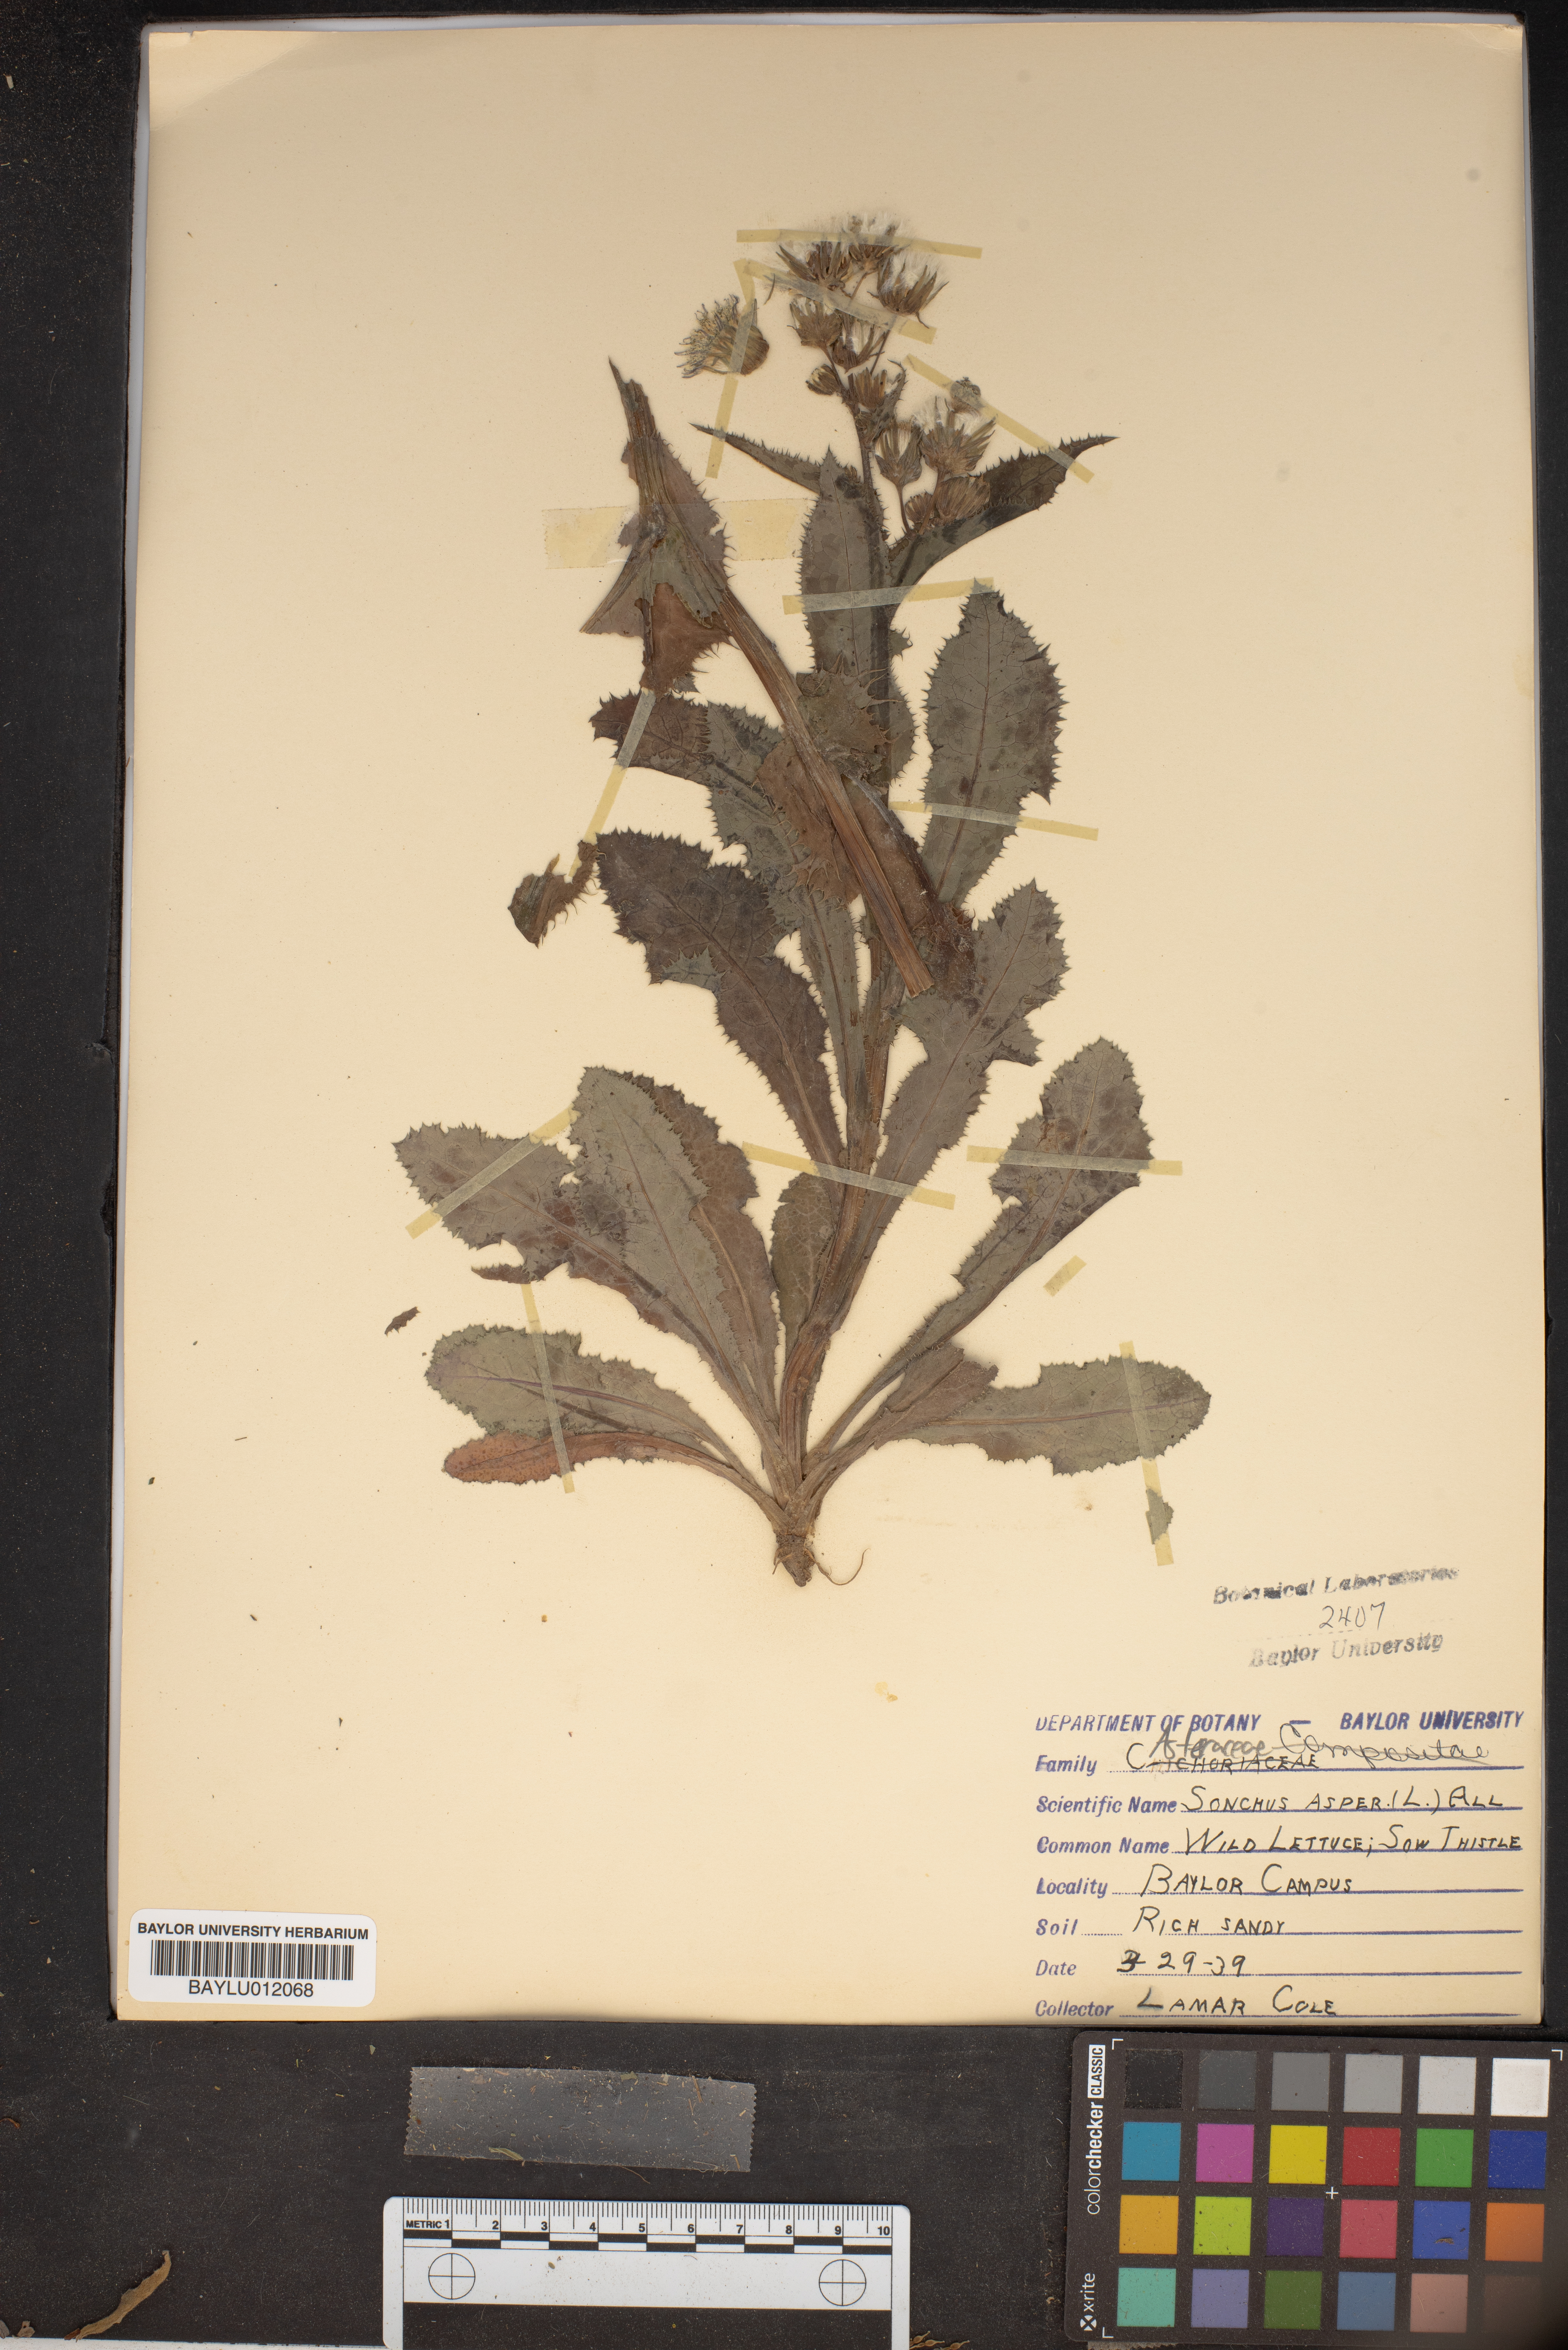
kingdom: Plantae
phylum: Tracheophyta
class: Magnoliopsida
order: Asterales
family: Asteraceae
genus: Sonchus
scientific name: Sonchus asper
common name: Prickly sow-thistle
